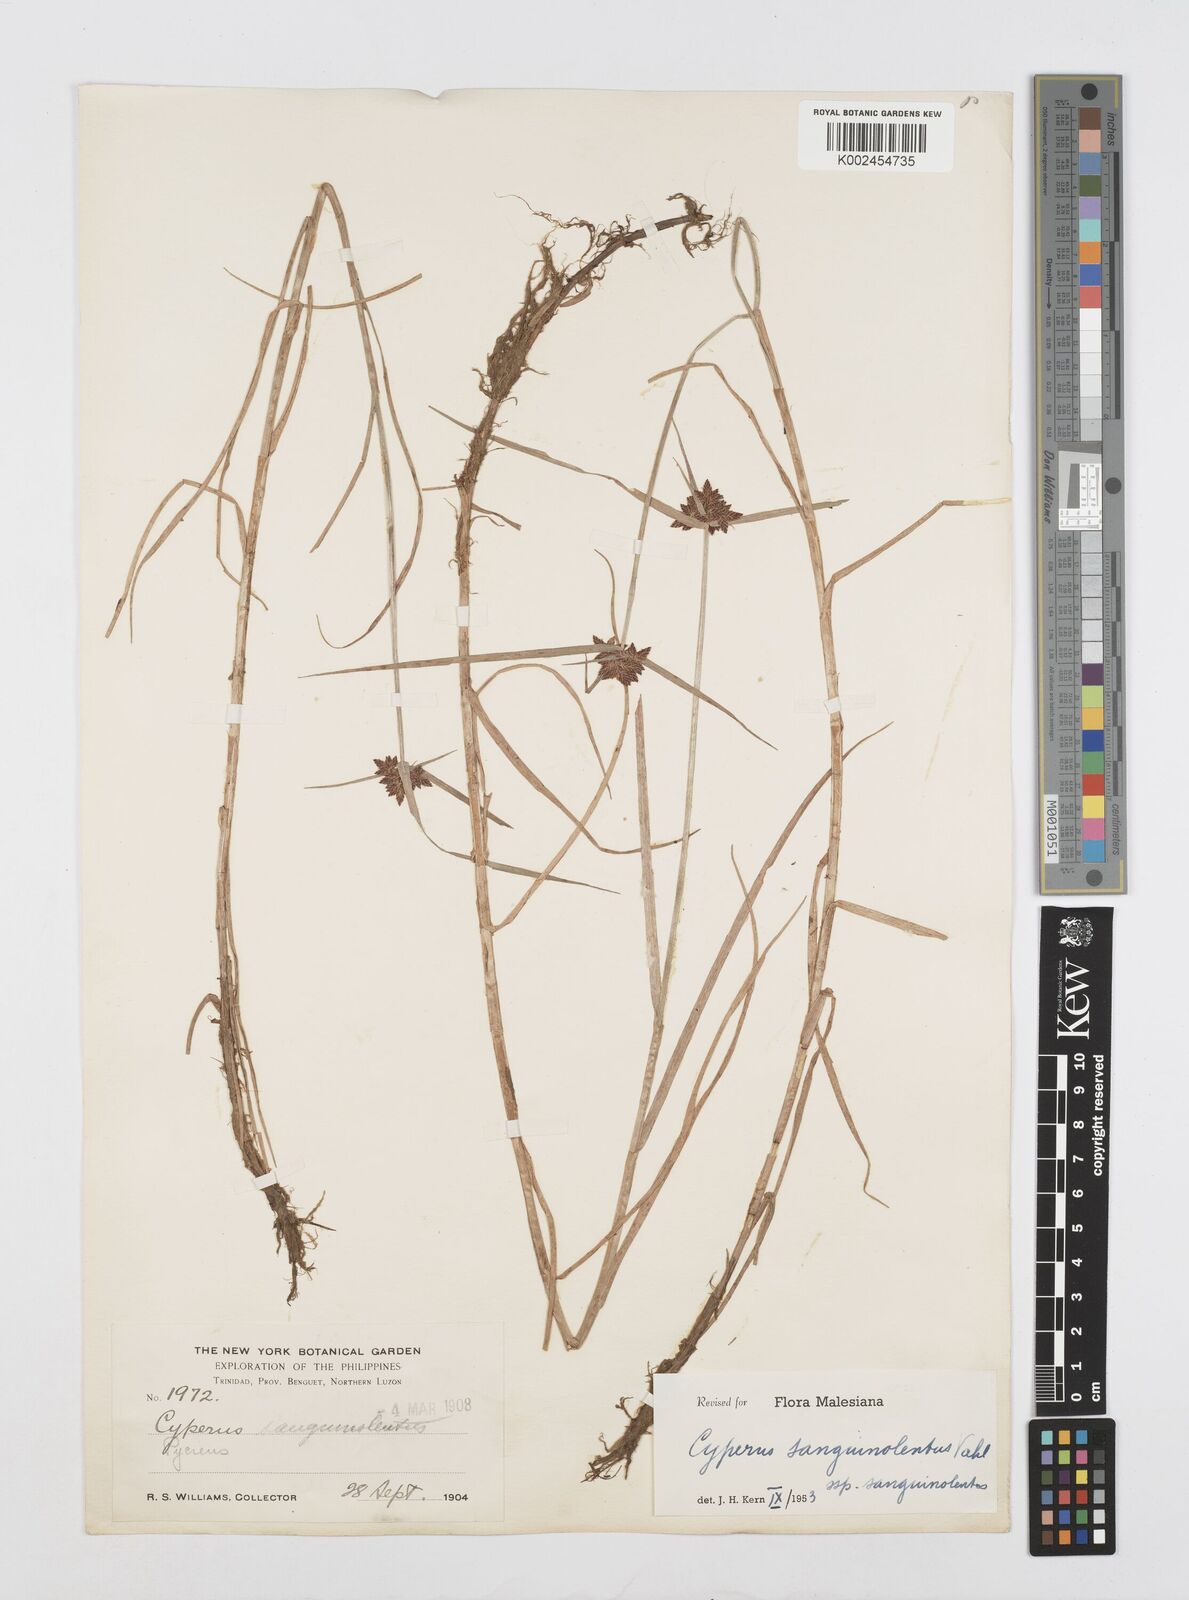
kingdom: Plantae
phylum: Tracheophyta
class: Liliopsida
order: Poales
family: Cyperaceae
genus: Cyperus
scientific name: Cyperus sanguinolentus
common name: Purpleglume flatsedge
